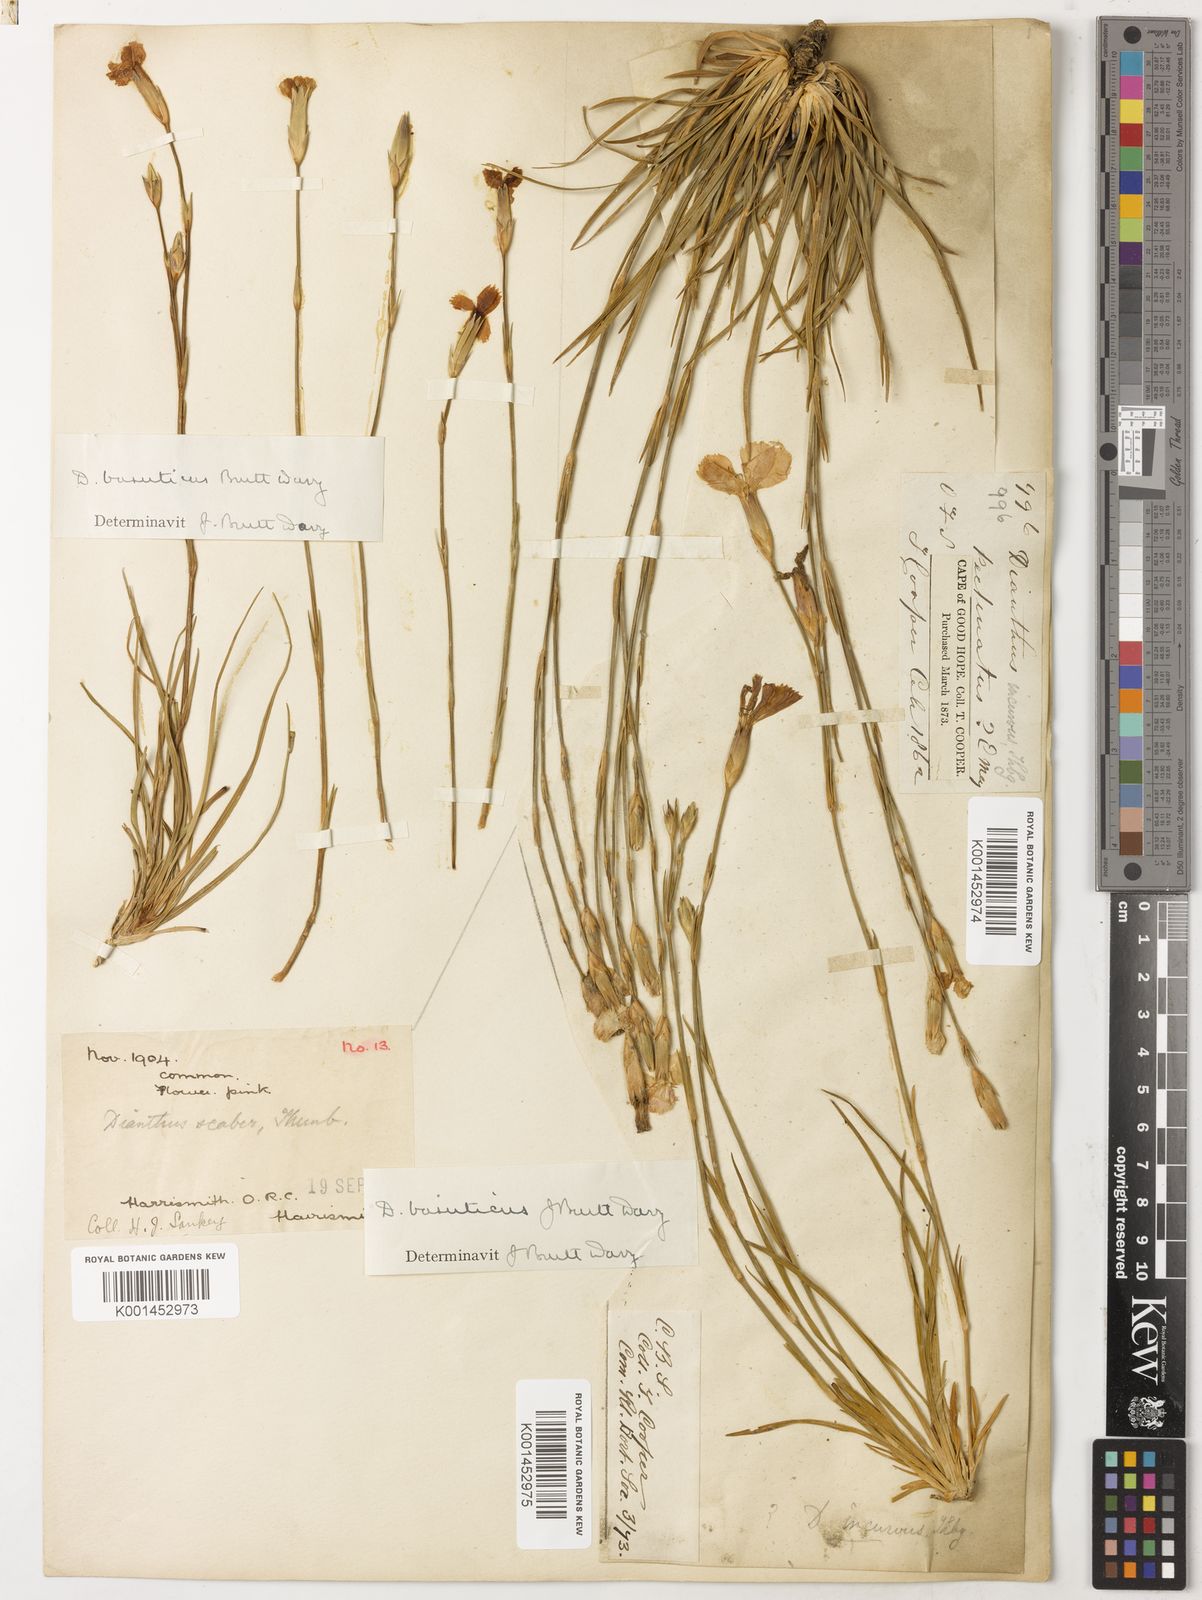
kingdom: Plantae
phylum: Tracheophyta
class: Magnoliopsida
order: Caryophyllales
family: Caryophyllaceae
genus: Dianthus
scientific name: Dianthus basuticus
